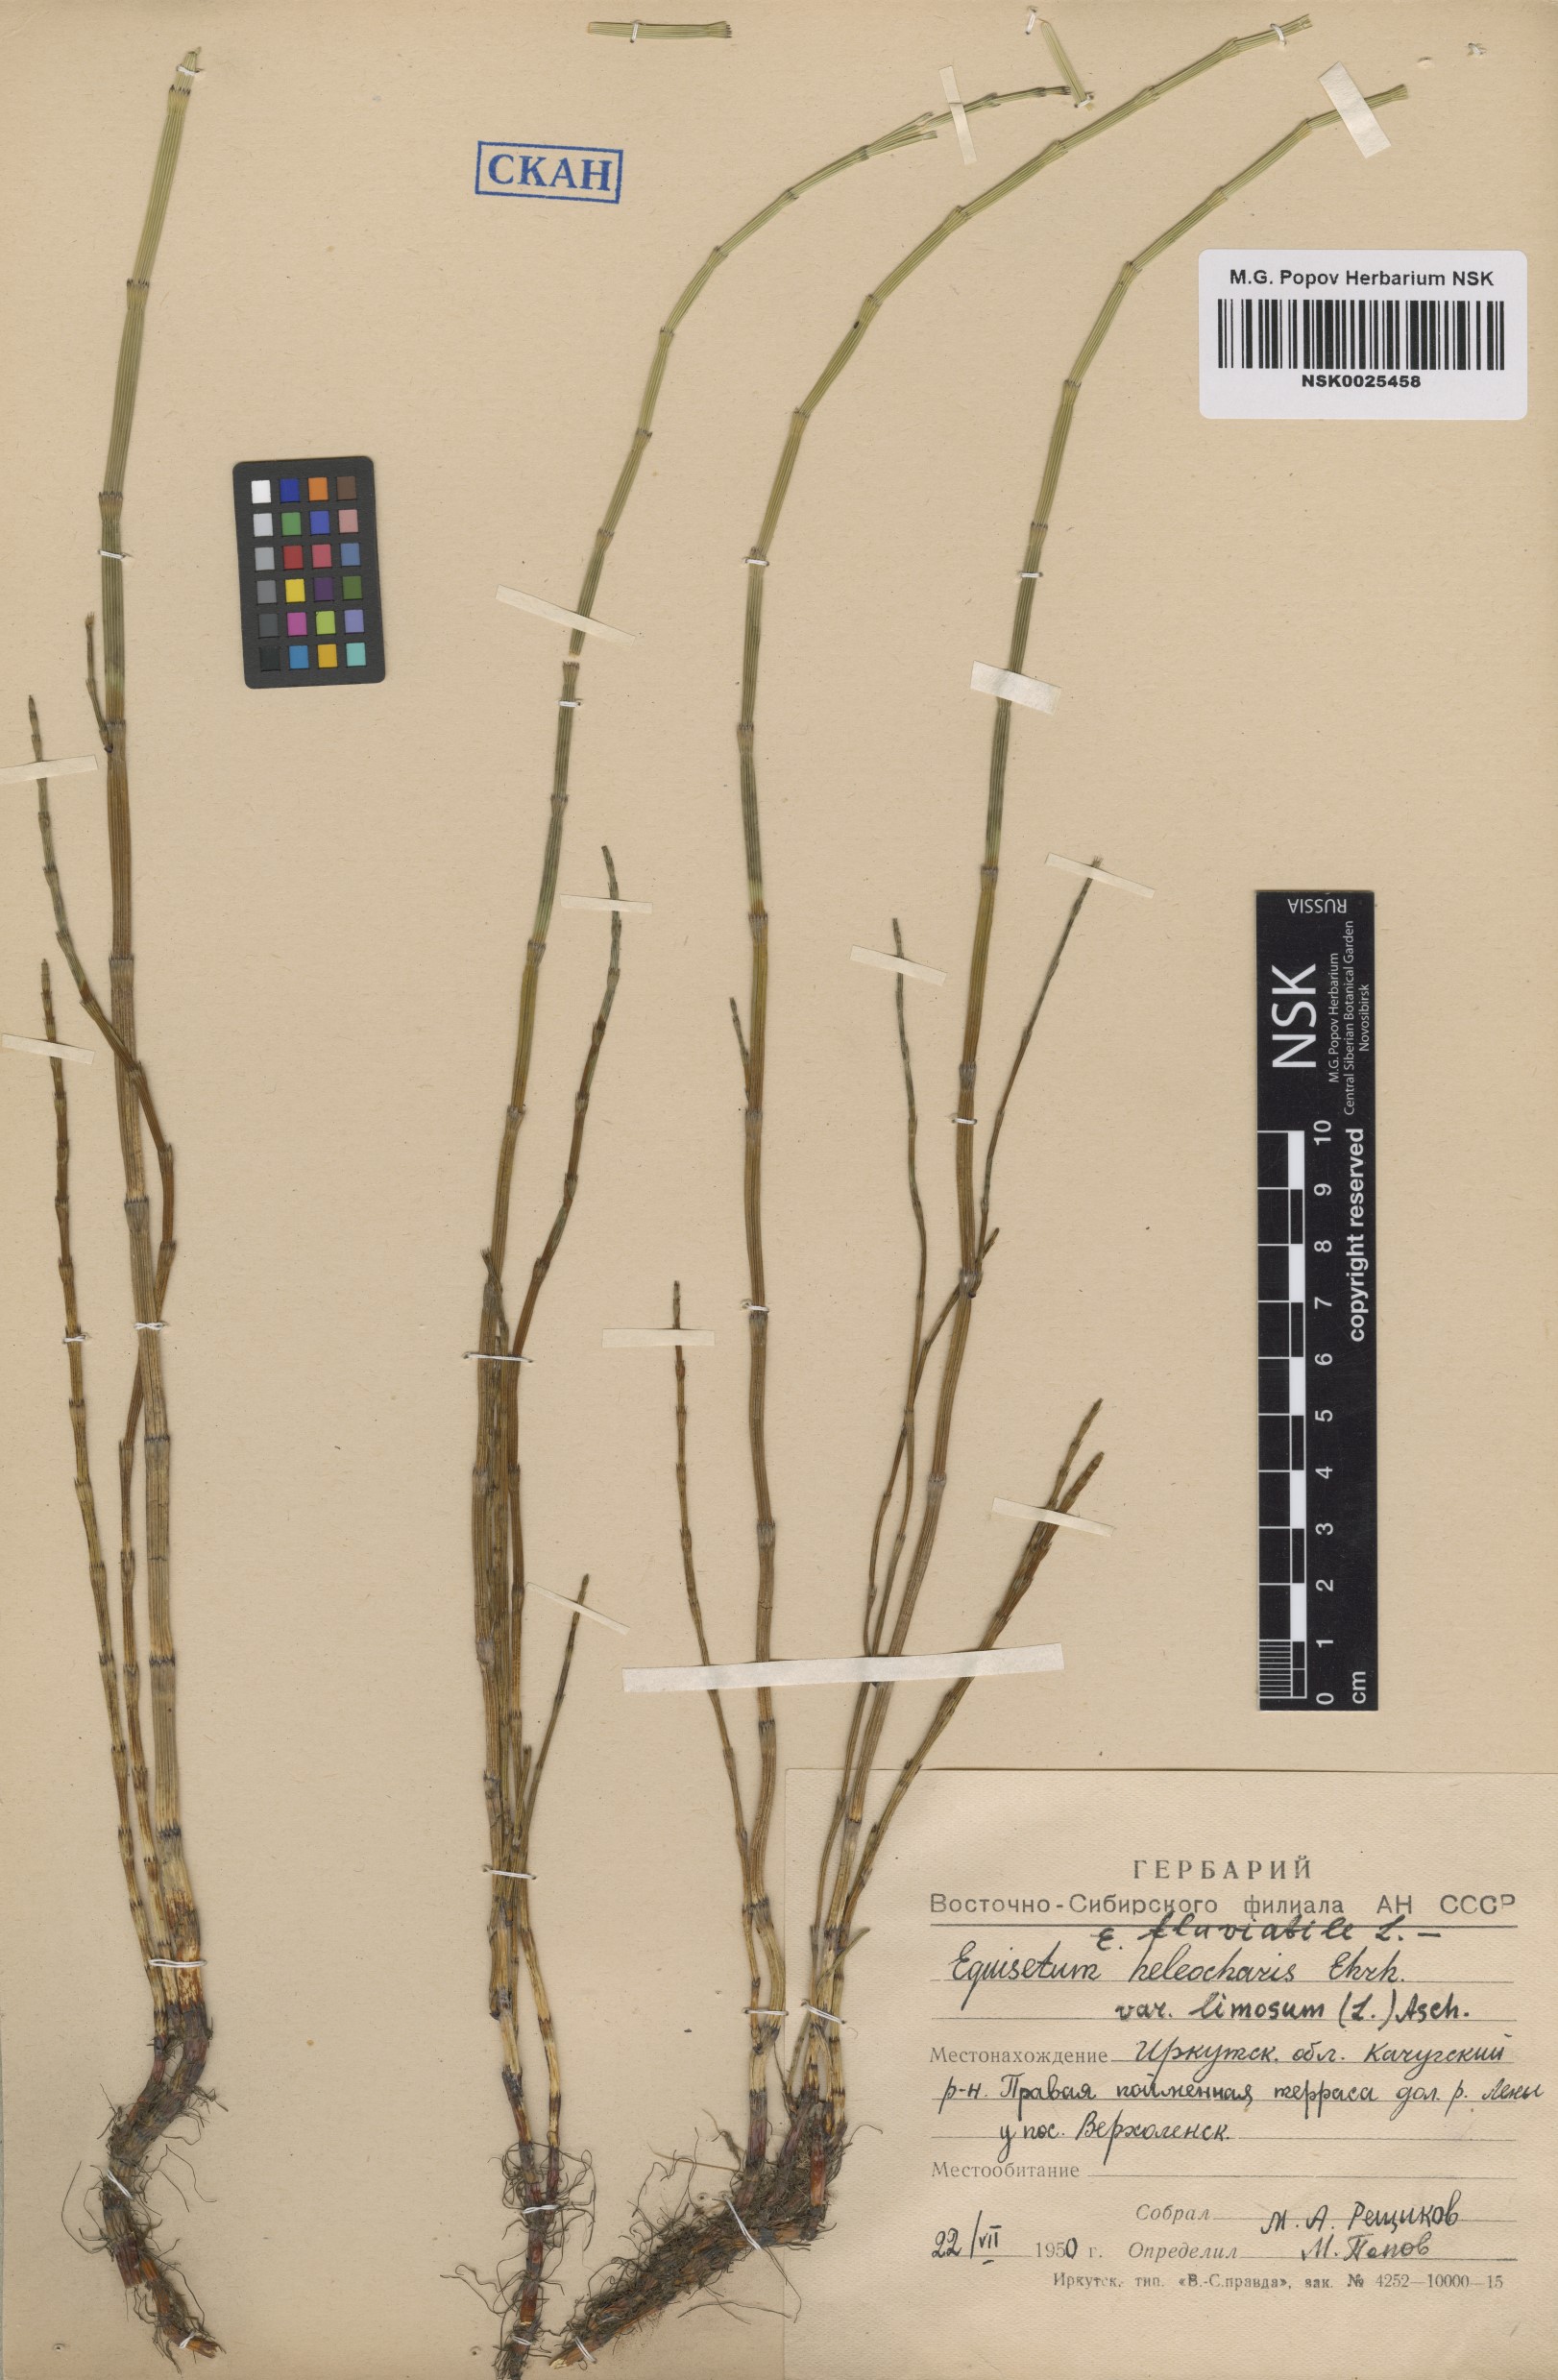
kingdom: Plantae
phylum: Tracheophyta
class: Polypodiopsida
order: Equisetales
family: Equisetaceae
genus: Equisetum
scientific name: Equisetum fluviatile
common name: Water horsetail
